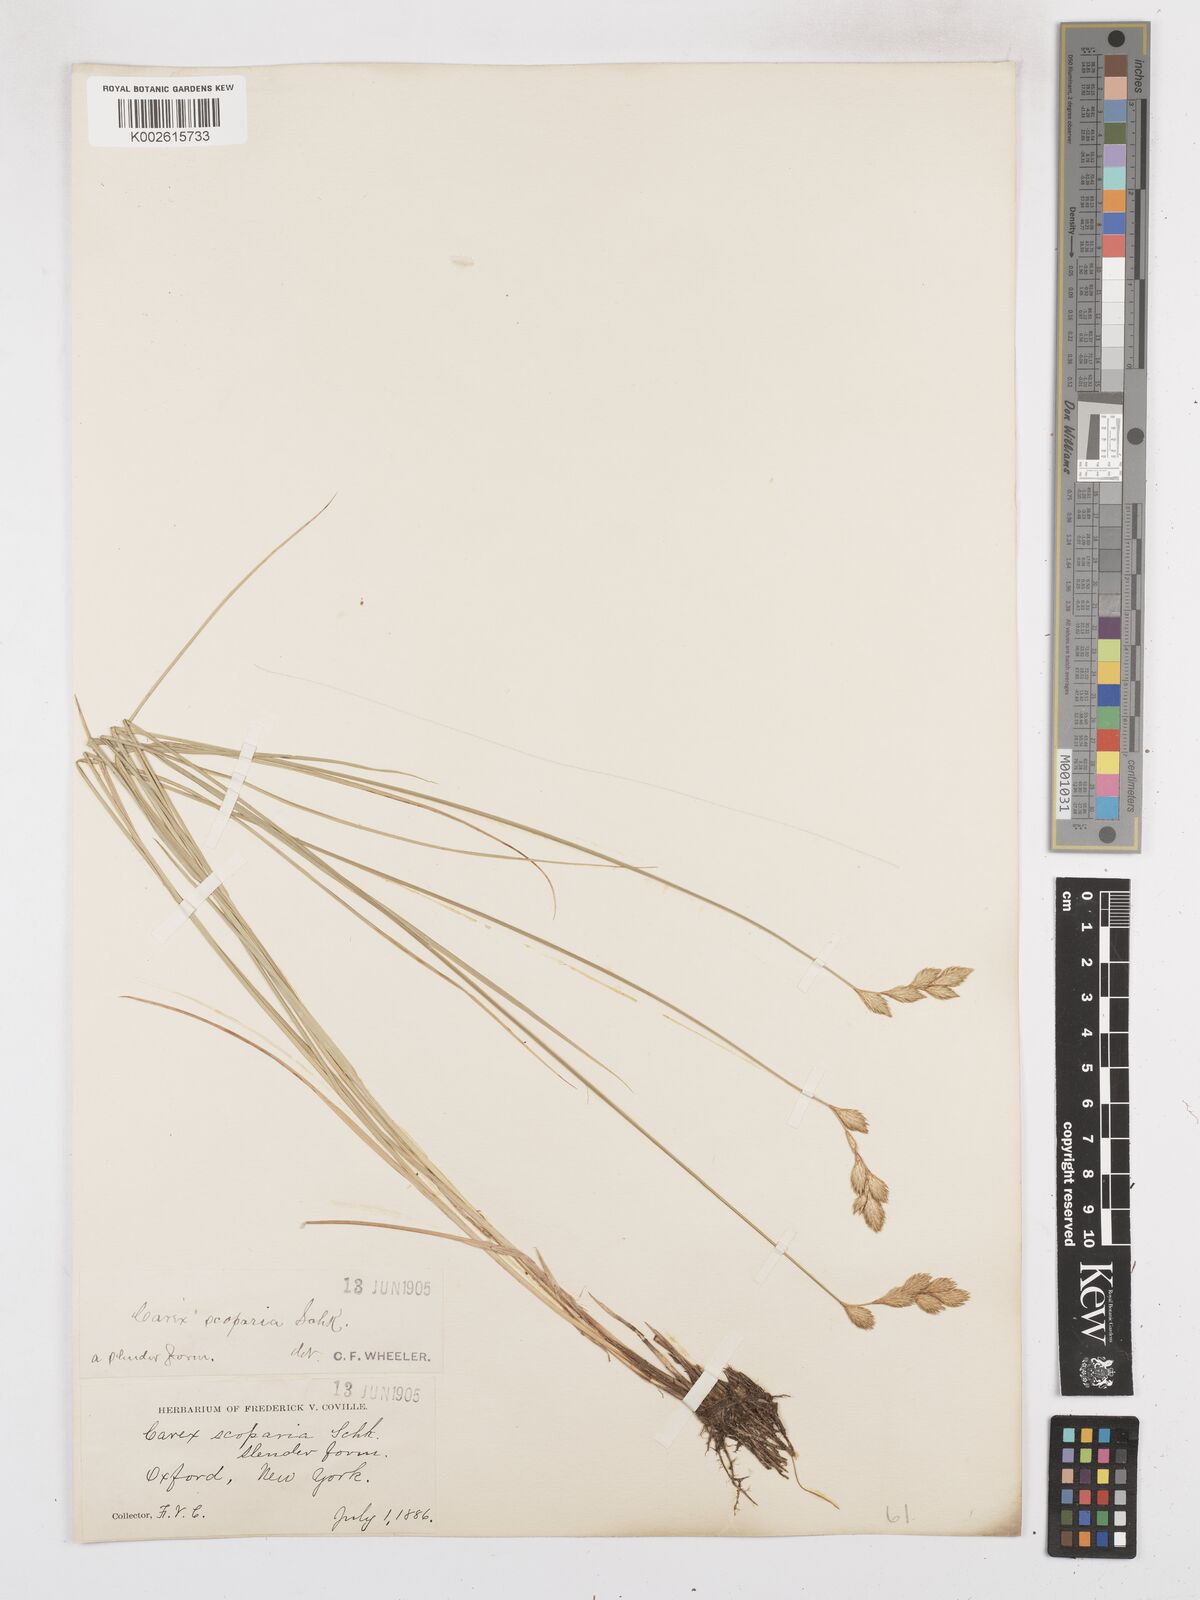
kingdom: Plantae
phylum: Tracheophyta
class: Liliopsida
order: Poales
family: Cyperaceae
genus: Carex
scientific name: Carex leporina
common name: Oval sedge
